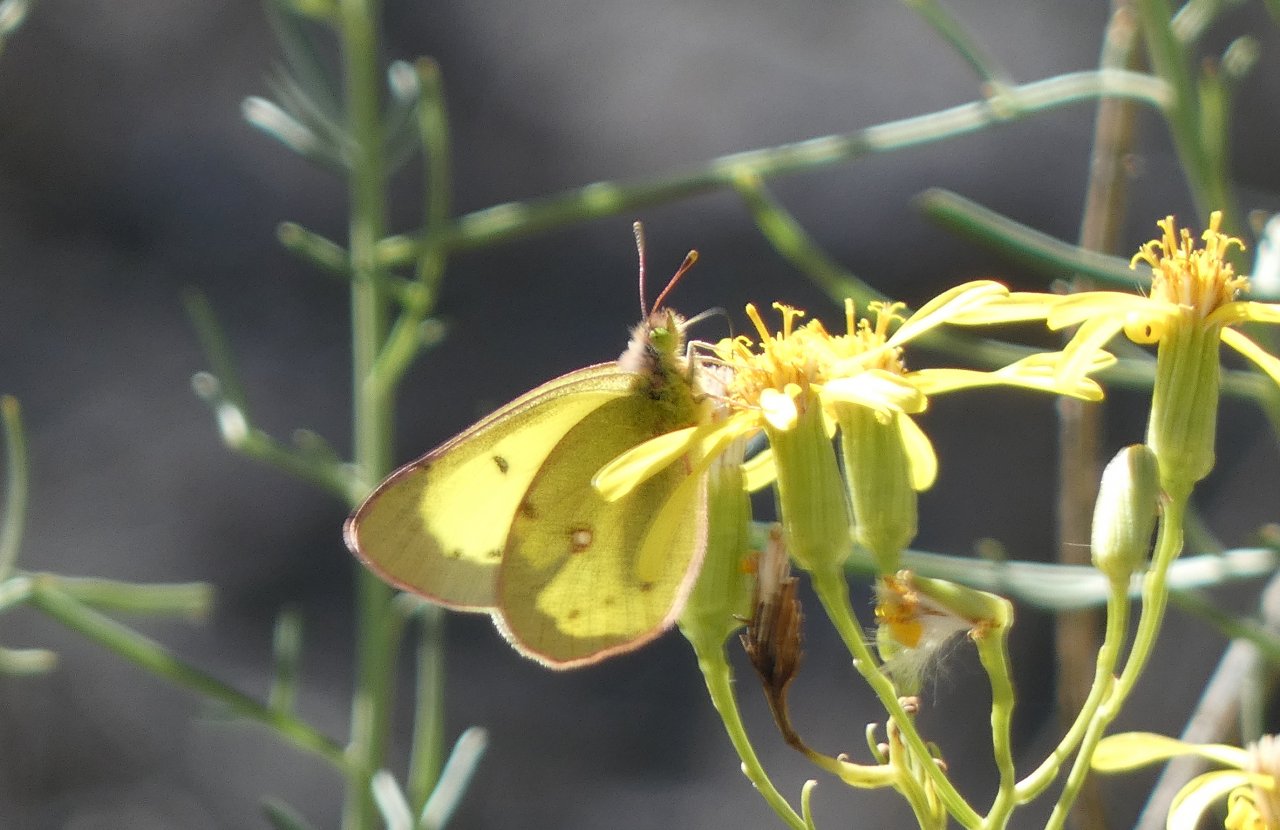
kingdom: Animalia
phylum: Arthropoda
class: Insecta
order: Lepidoptera
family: Pieridae
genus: Colias
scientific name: Colias philodice
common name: Clouded Sulphur
